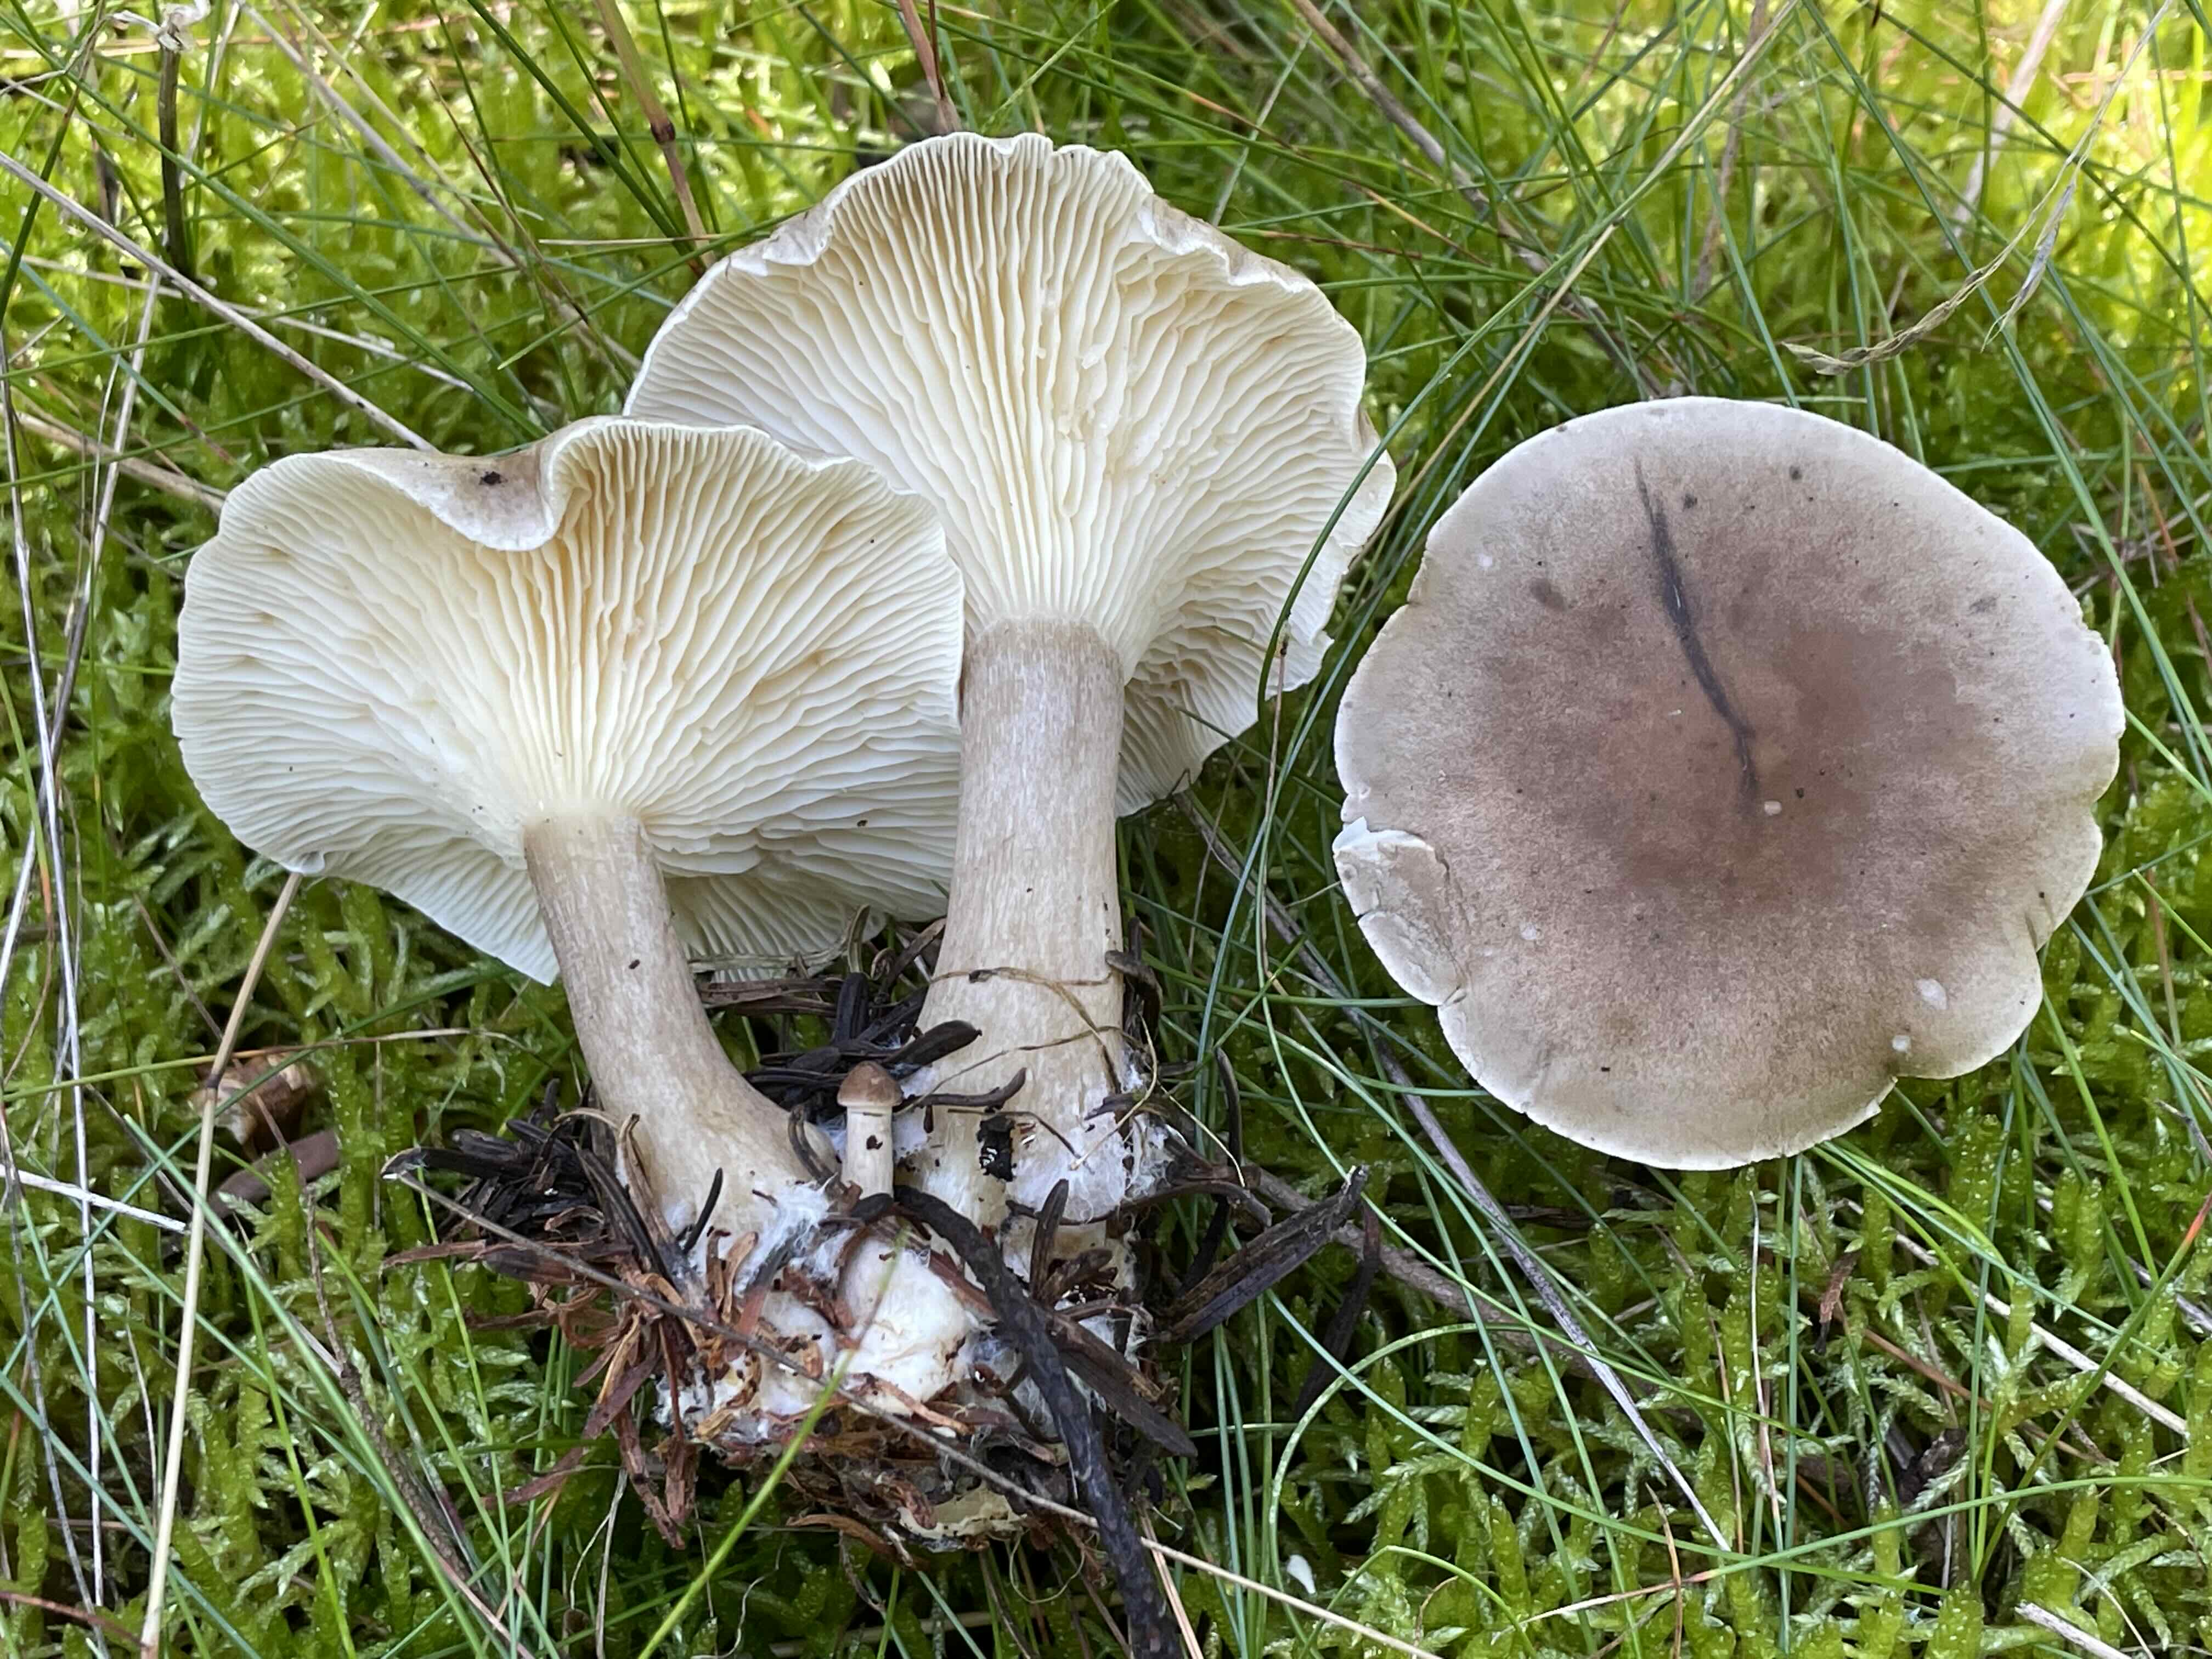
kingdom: Fungi
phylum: Basidiomycota
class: Agaricomycetes
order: Agaricales
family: Hygrophoraceae
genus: Ampulloclitocybe
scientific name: Ampulloclitocybe clavipes
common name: køllefod
